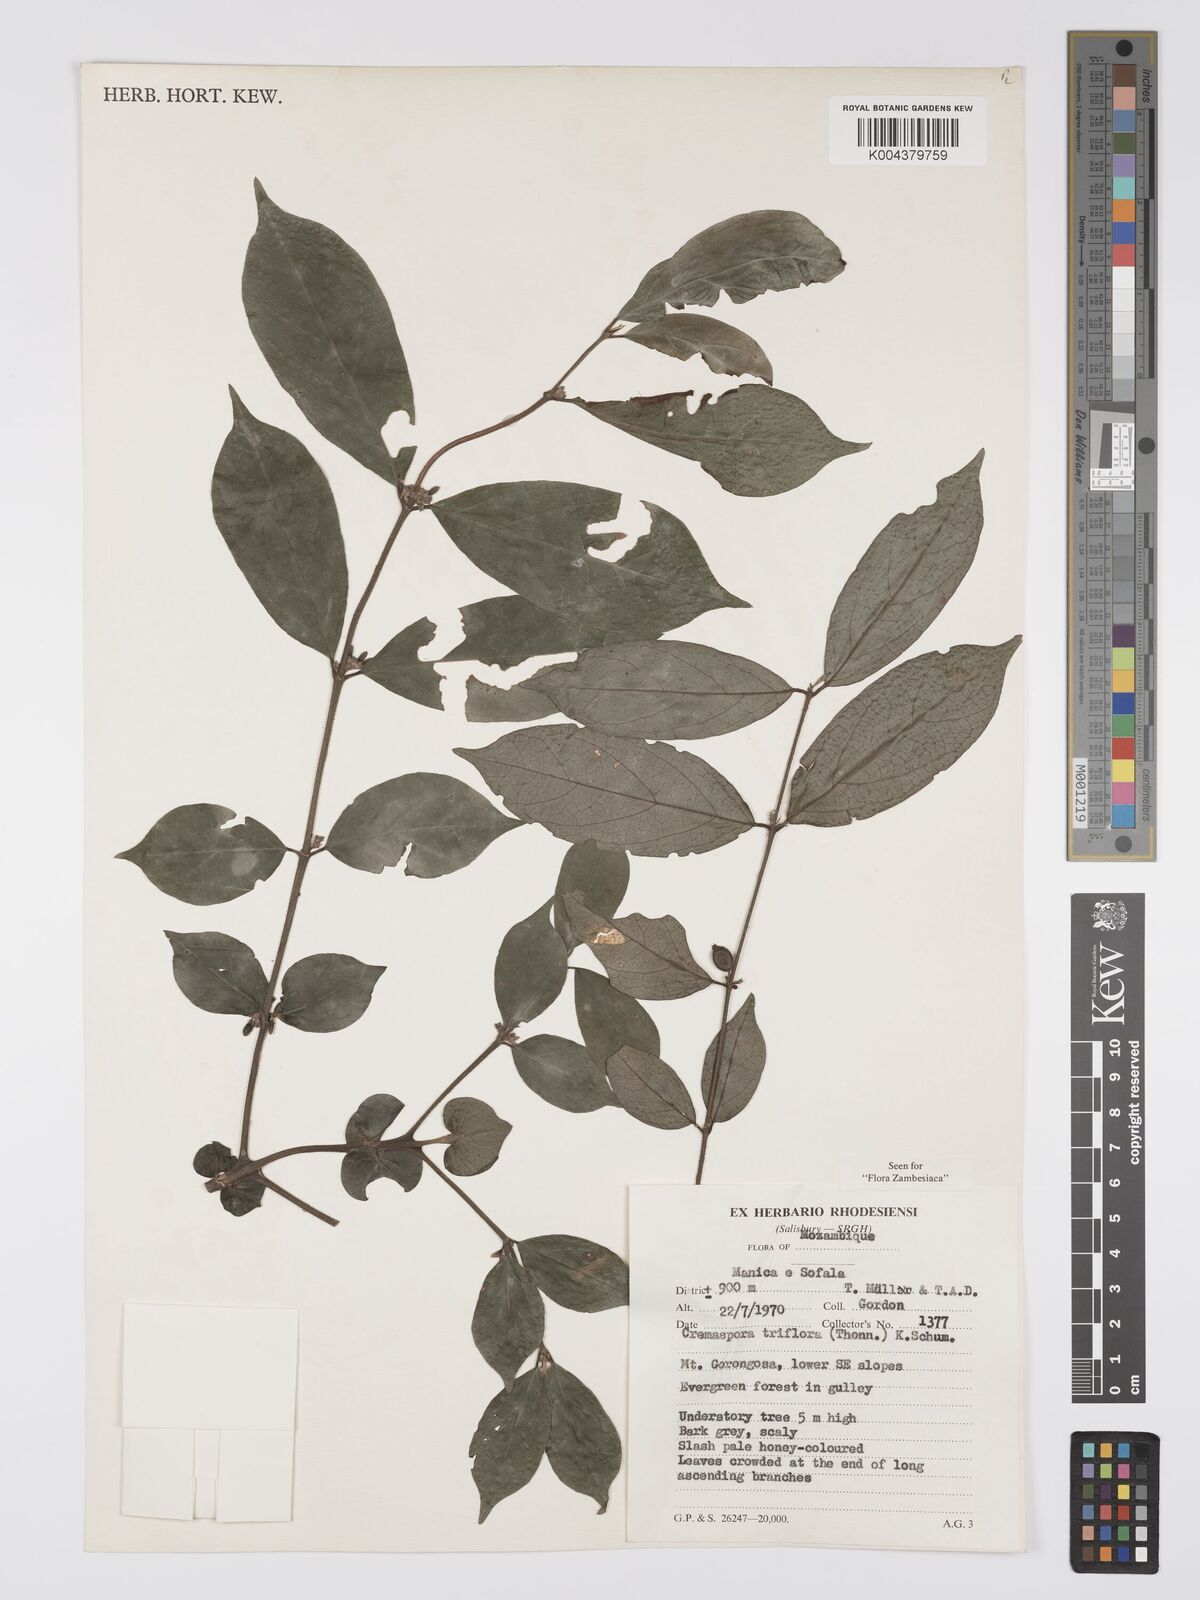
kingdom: Plantae
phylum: Tracheophyta
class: Magnoliopsida
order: Gentianales
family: Rubiaceae
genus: Cremaspora
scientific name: Cremaspora triflora
